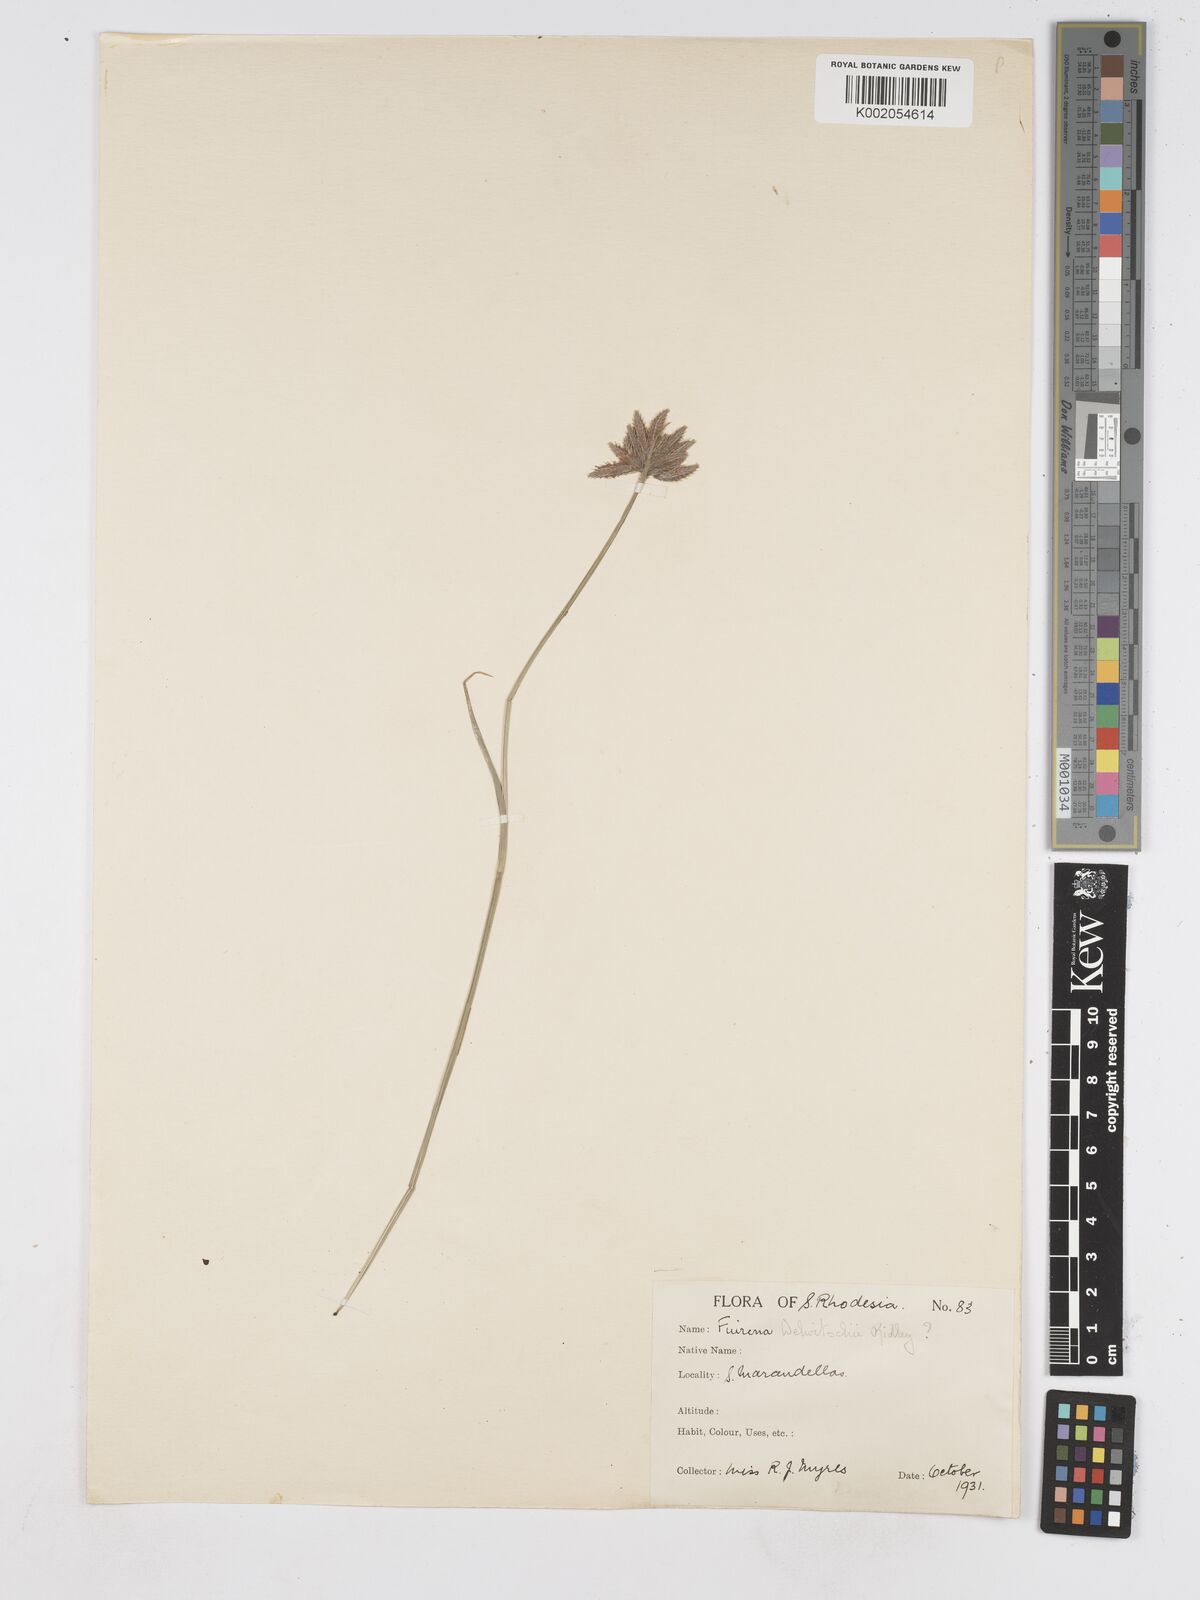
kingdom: Plantae
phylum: Tracheophyta
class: Liliopsida
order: Poales
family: Cyperaceae
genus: Fuirena
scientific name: Fuirena welwitschii
